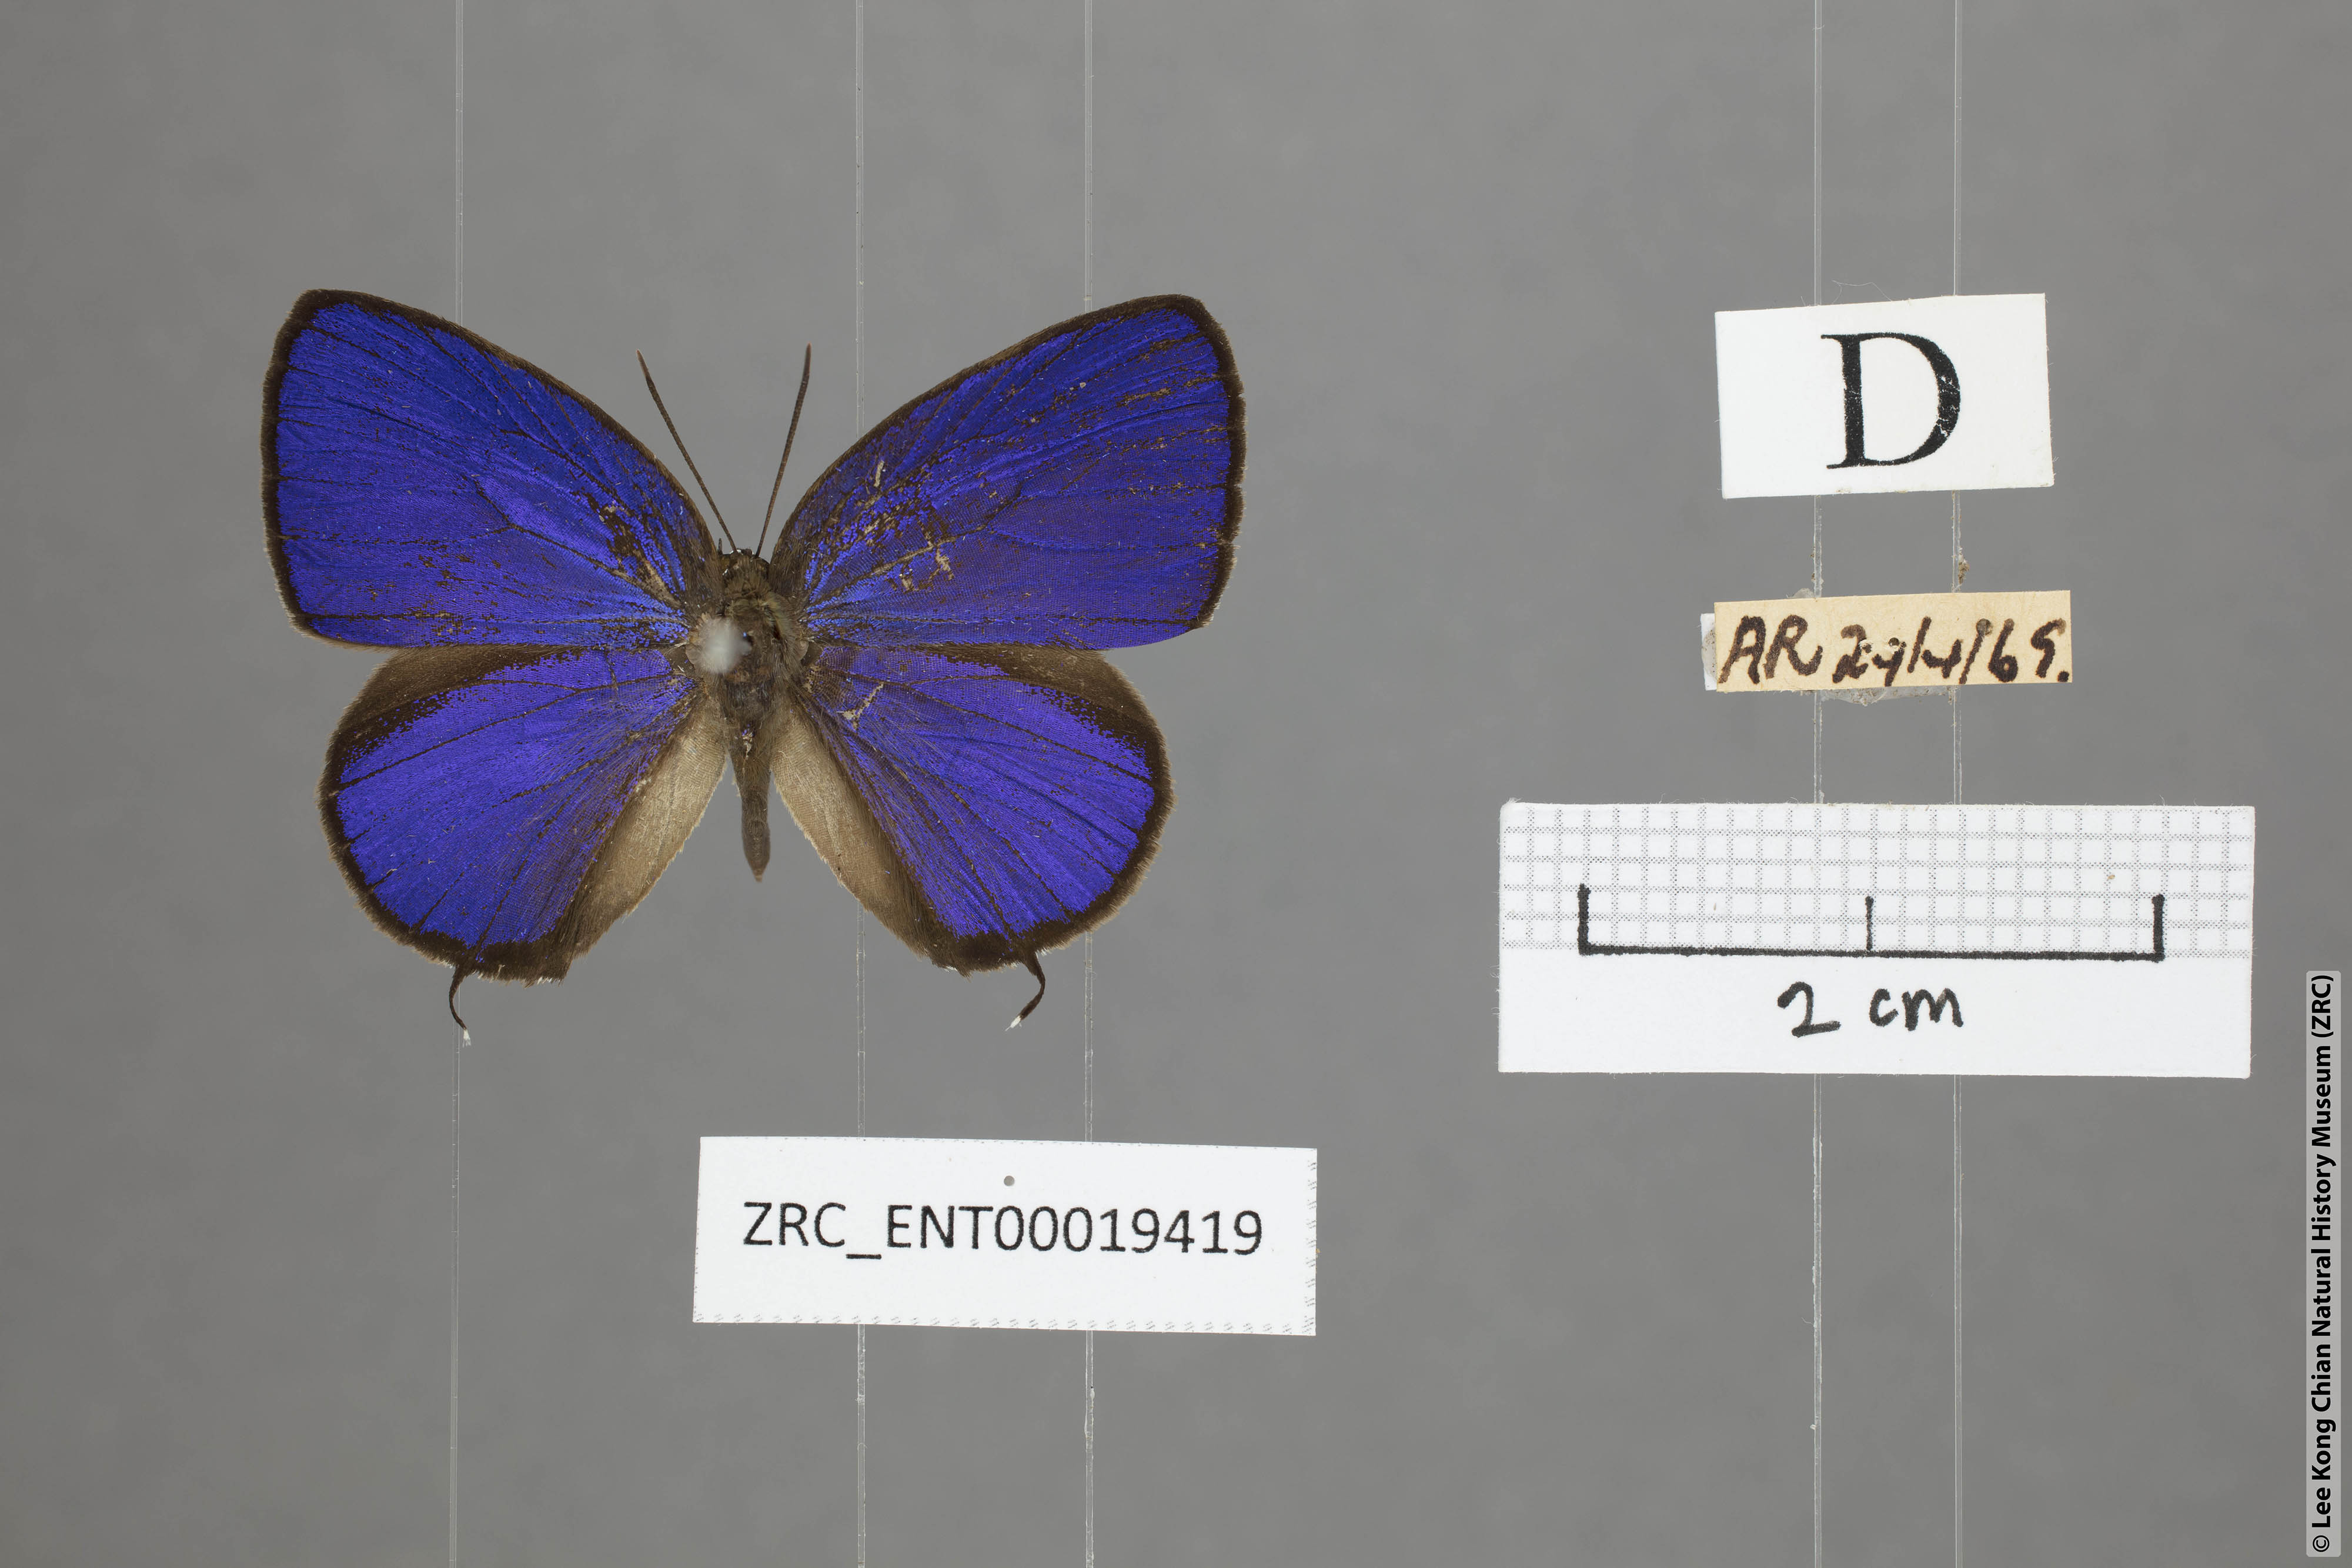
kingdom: Animalia
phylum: Arthropoda
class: Insecta
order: Lepidoptera
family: Lycaenidae
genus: Arhopala
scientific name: Arhopala elopura
